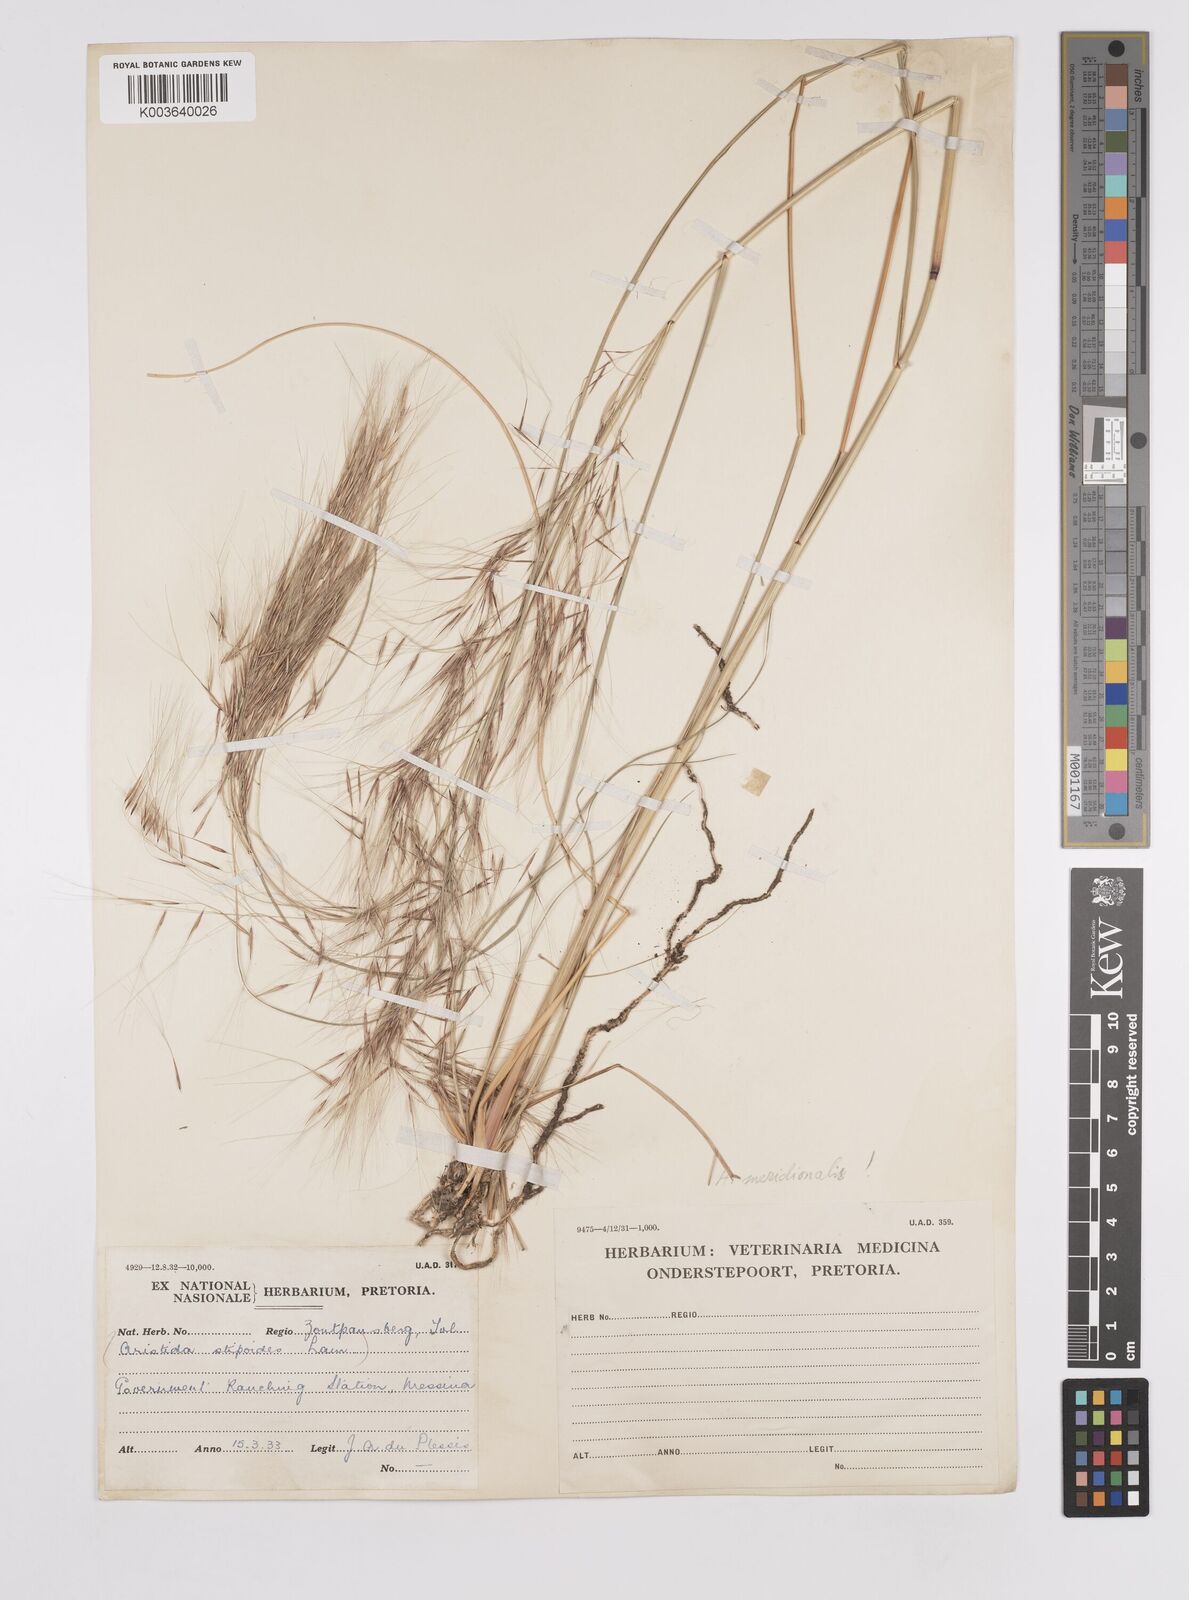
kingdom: Plantae
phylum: Tracheophyta
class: Liliopsida
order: Poales
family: Poaceae
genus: Aristida
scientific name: Aristida meridionalis
